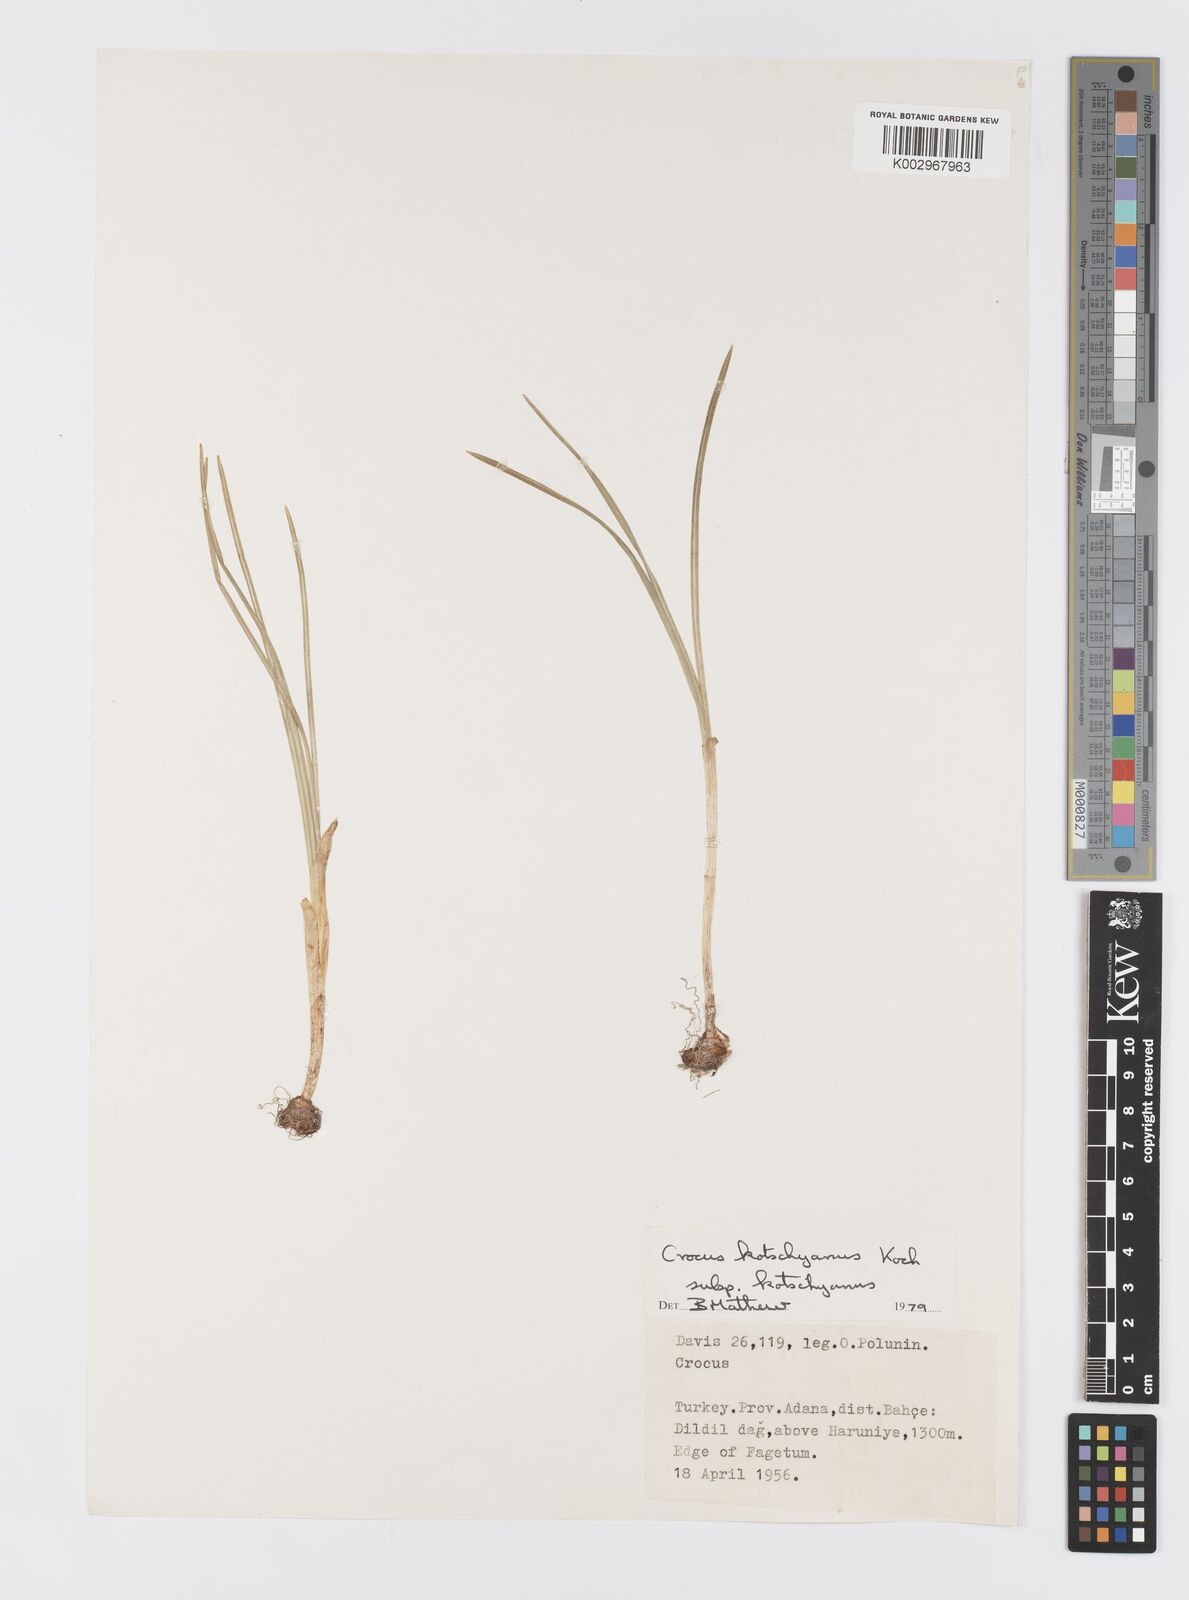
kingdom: Plantae
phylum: Tracheophyta
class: Liliopsida
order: Asparagales
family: Iridaceae
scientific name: Iridaceae
